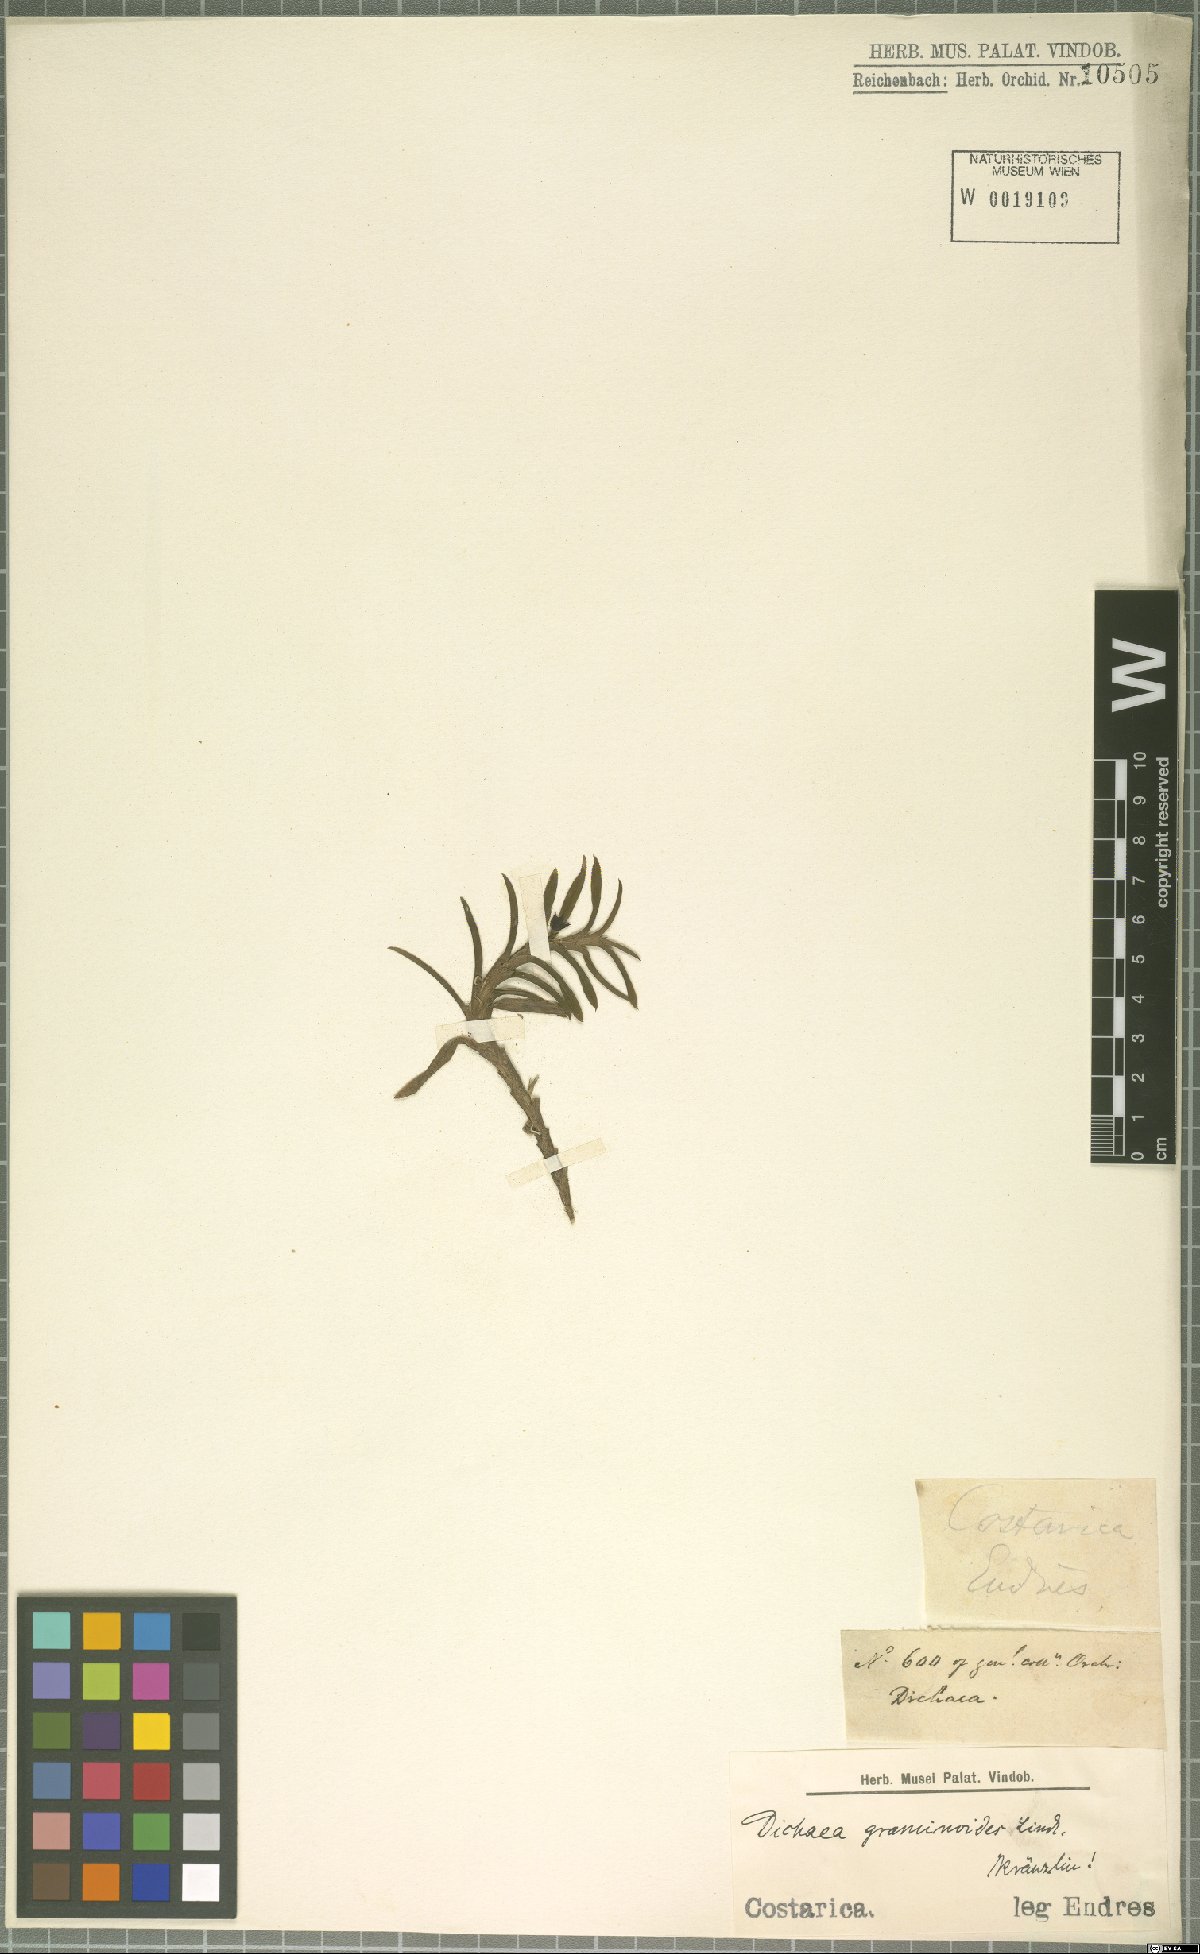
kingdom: Plantae
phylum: Tracheophyta
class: Liliopsida
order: Asparagales
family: Orchidaceae
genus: Dichaea
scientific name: Dichaea graminoides
